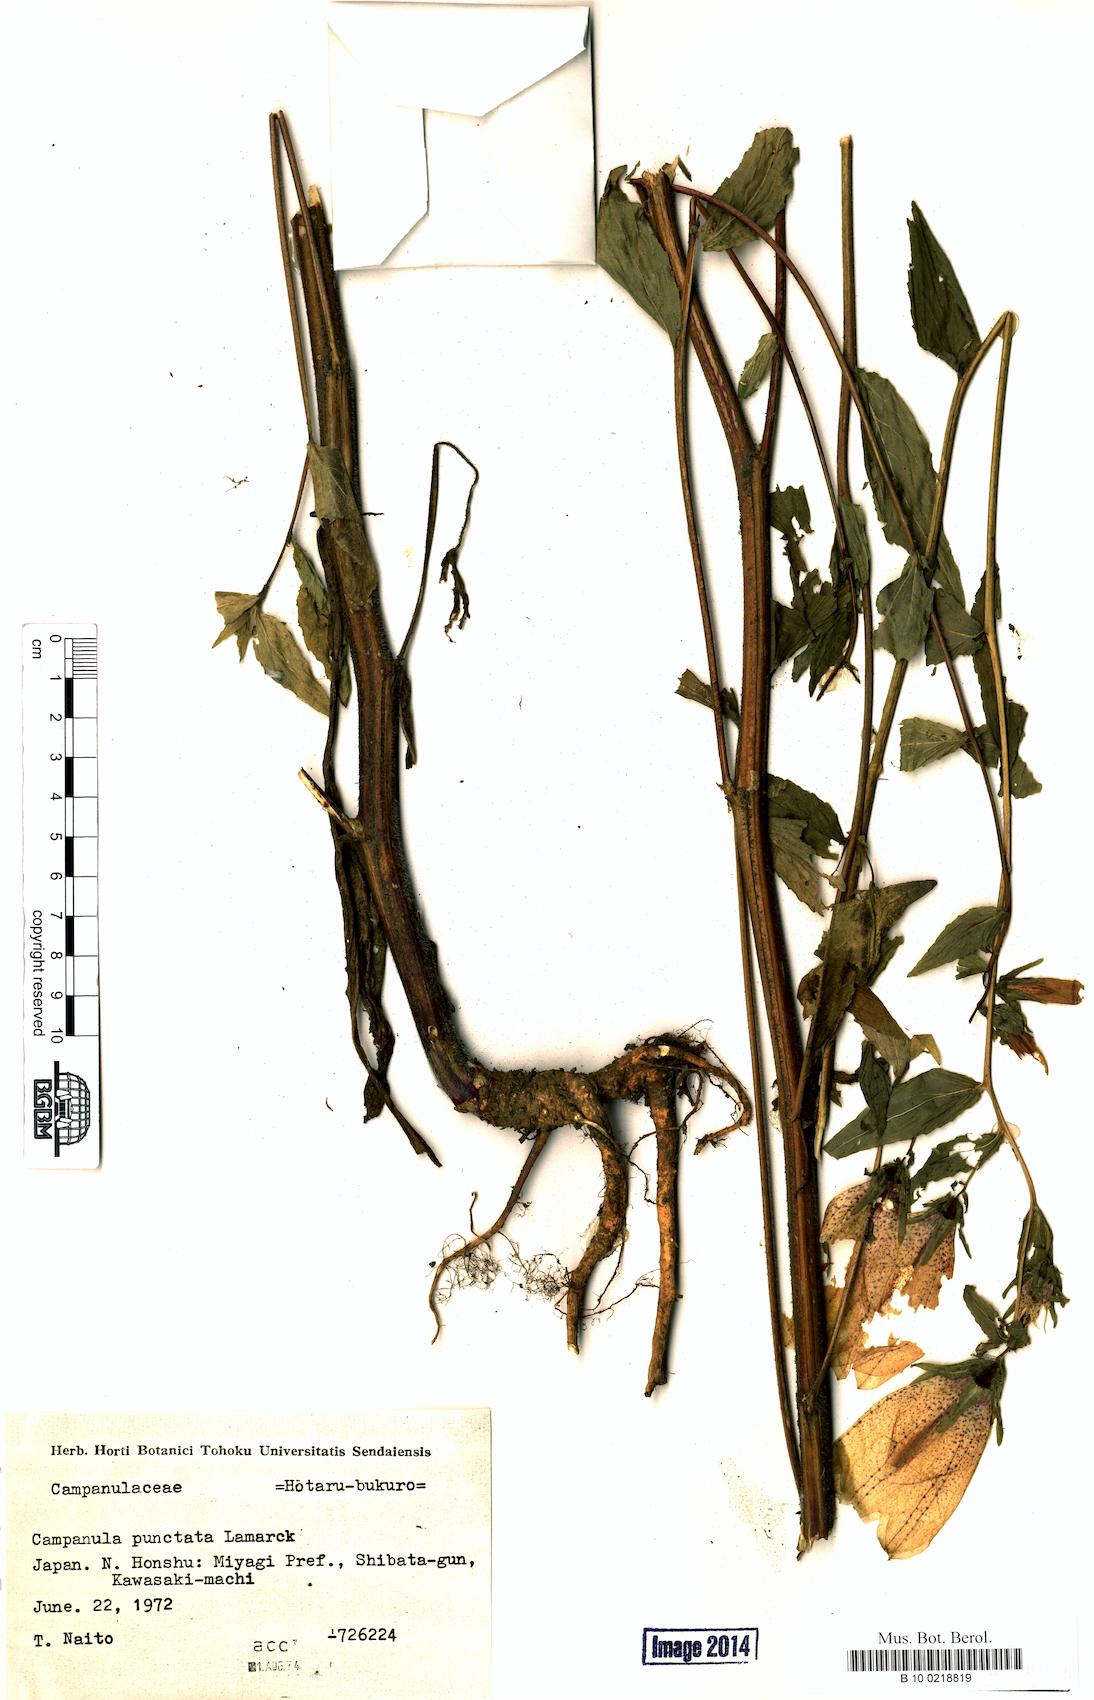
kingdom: Plantae
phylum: Tracheophyta
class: Magnoliopsida
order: Asterales
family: Campanulaceae
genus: Campanula
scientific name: Campanula punctata
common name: Spotted bellflower
